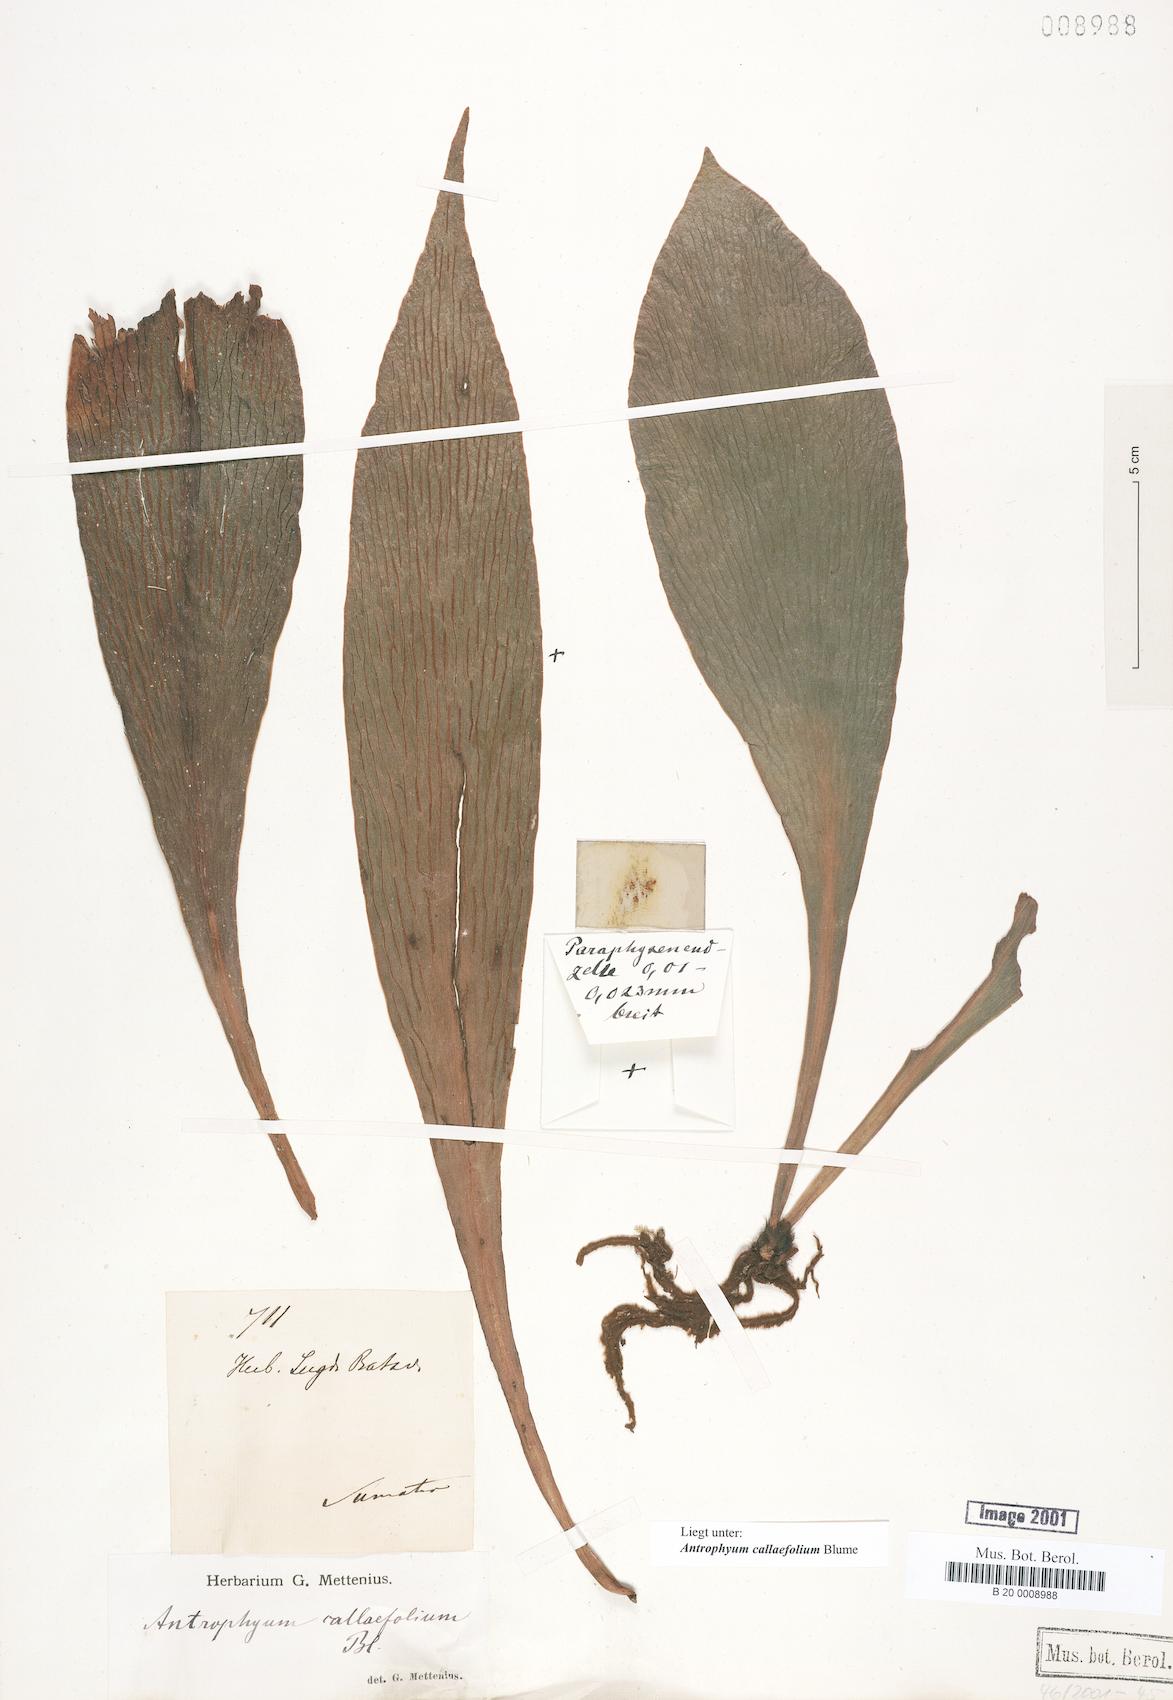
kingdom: Plantae
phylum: Tracheophyta
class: Polypodiopsida
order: Polypodiales
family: Pteridaceae
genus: Antrophyum
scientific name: Antrophyum callifolium
